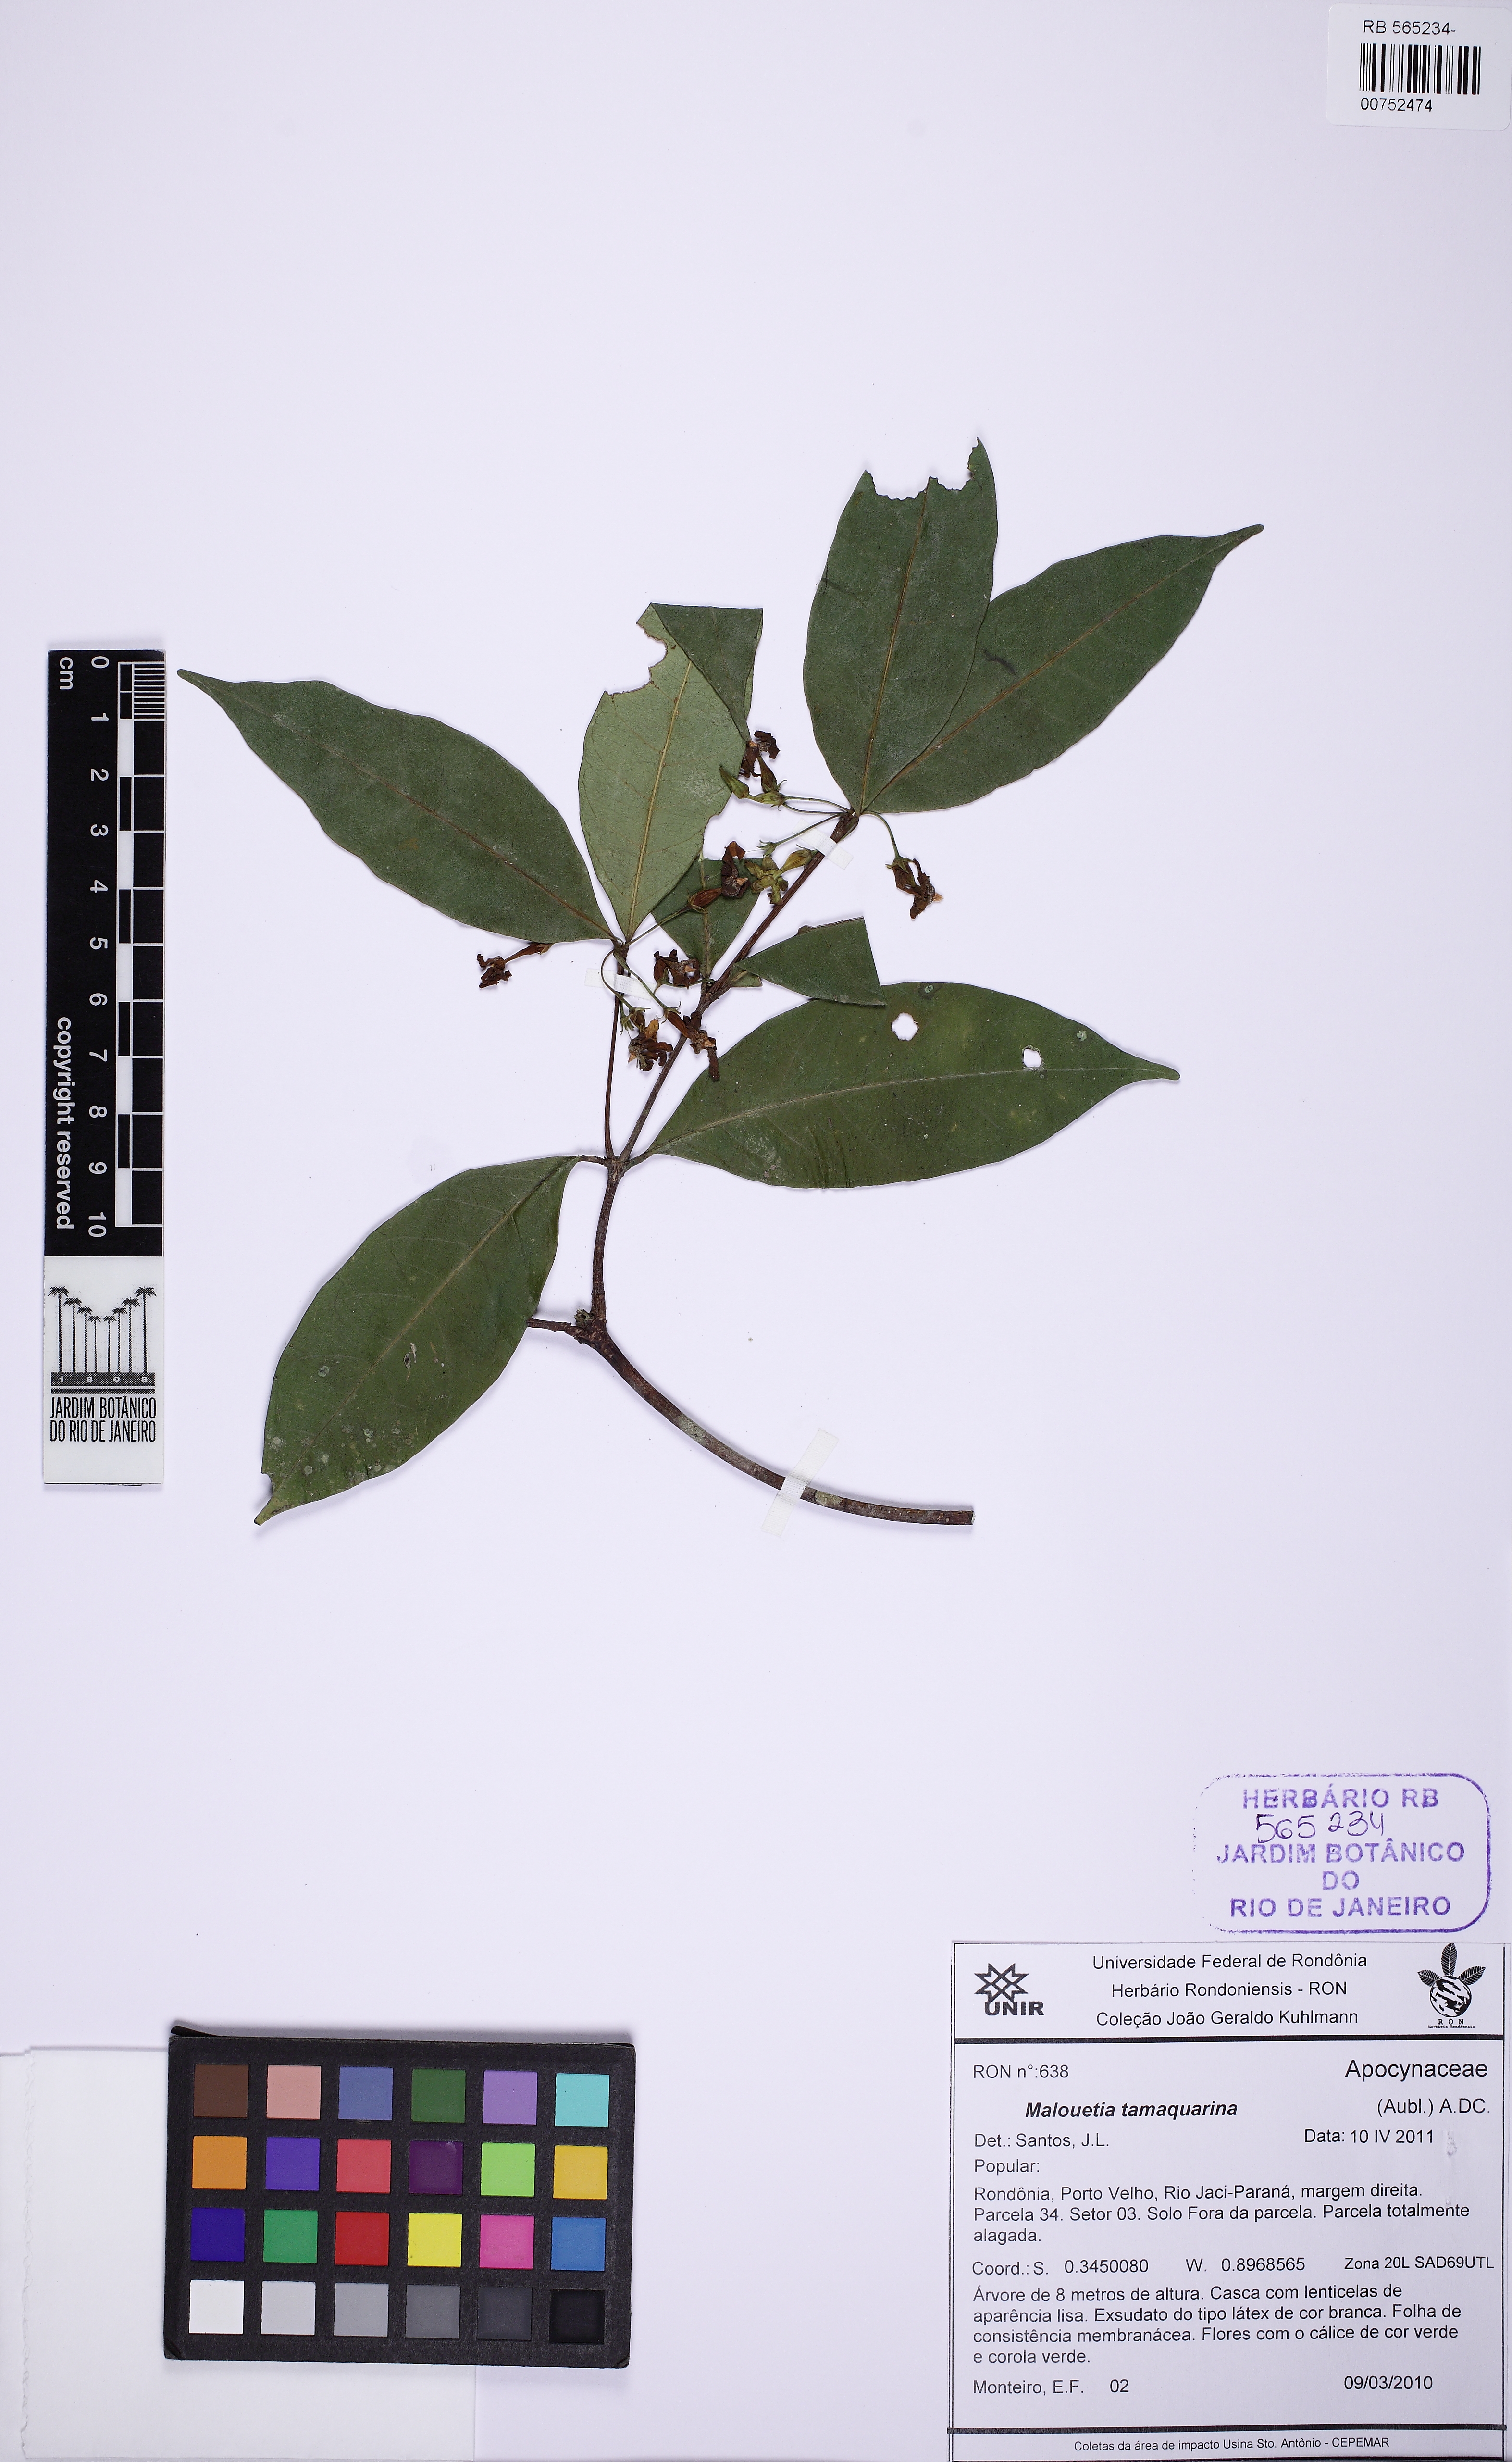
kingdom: Plantae
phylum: Tracheophyta
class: Magnoliopsida
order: Gentianales
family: Apocynaceae
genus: Malouetia
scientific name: Malouetia tamaquarina
